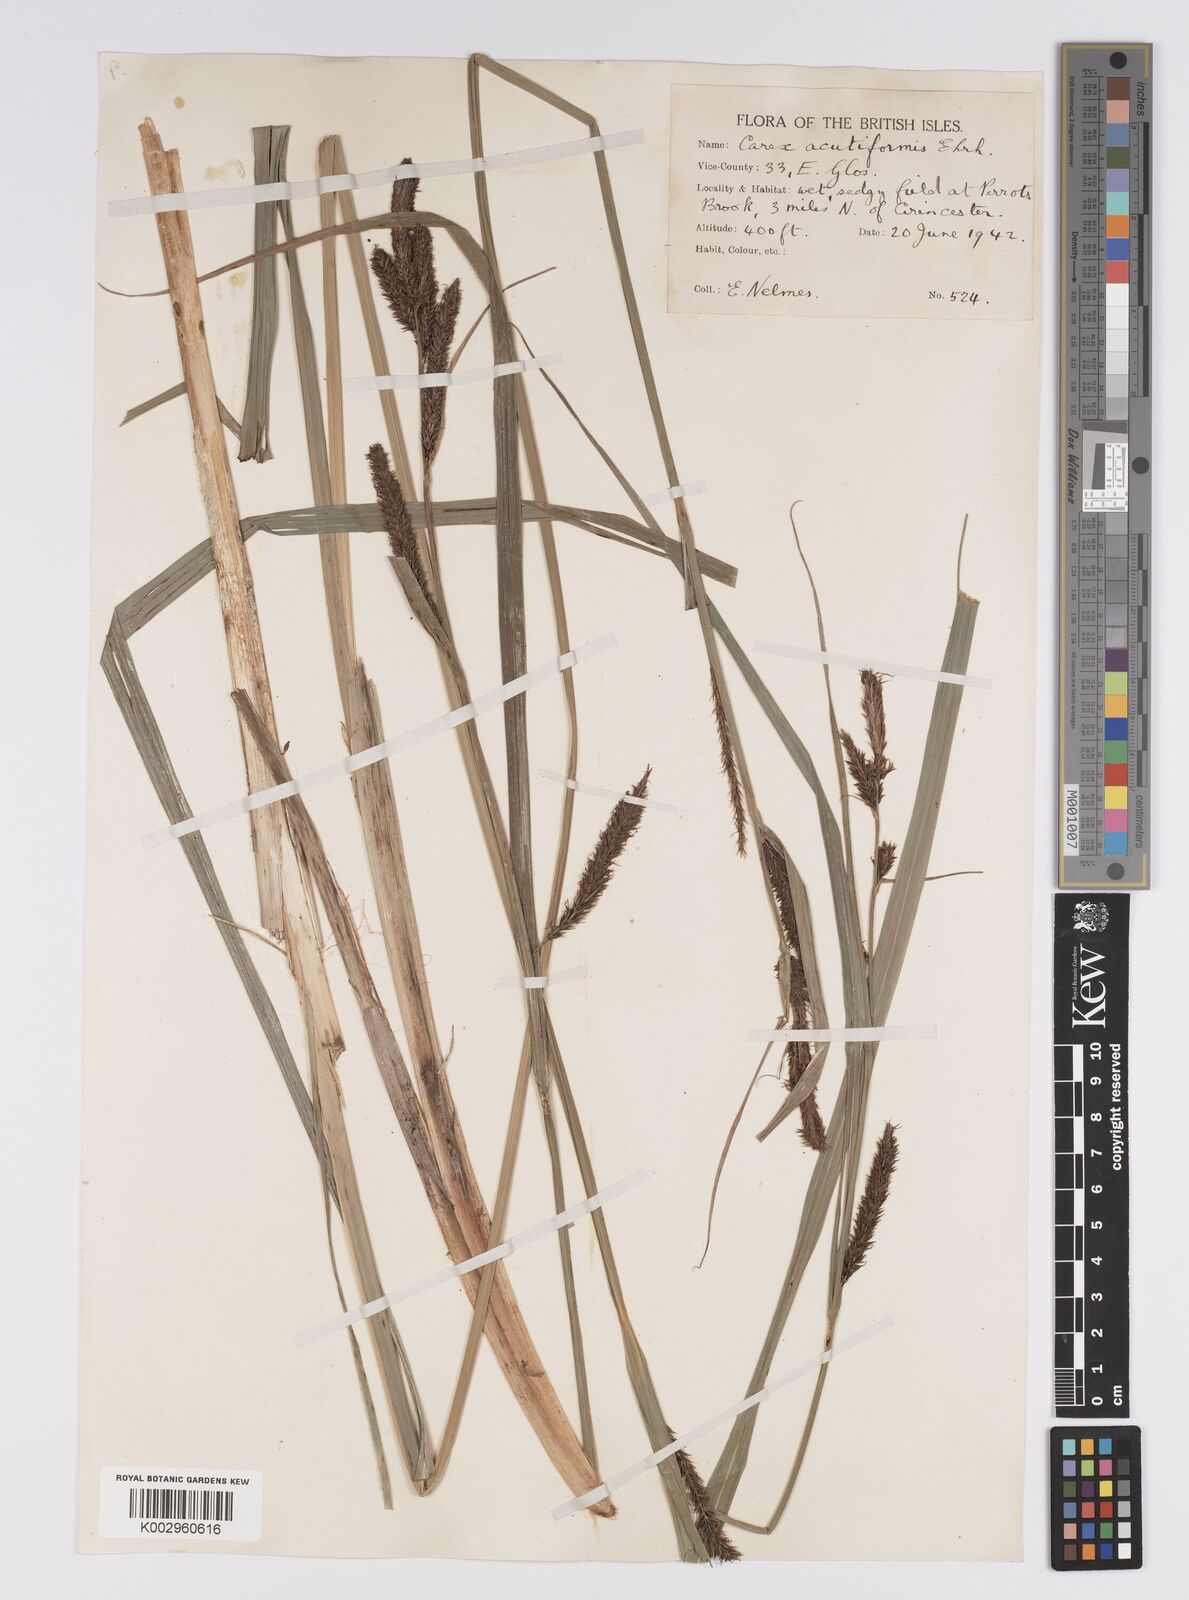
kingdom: Plantae
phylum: Tracheophyta
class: Liliopsida
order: Poales
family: Cyperaceae
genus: Carex
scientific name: Carex acutiformis
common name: Lesser pond-sedge
